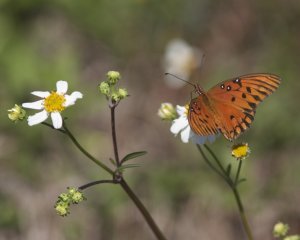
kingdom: Animalia
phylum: Arthropoda
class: Insecta
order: Lepidoptera
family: Nymphalidae
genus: Dione
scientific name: Dione vanillae
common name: Gulf Fritillary
